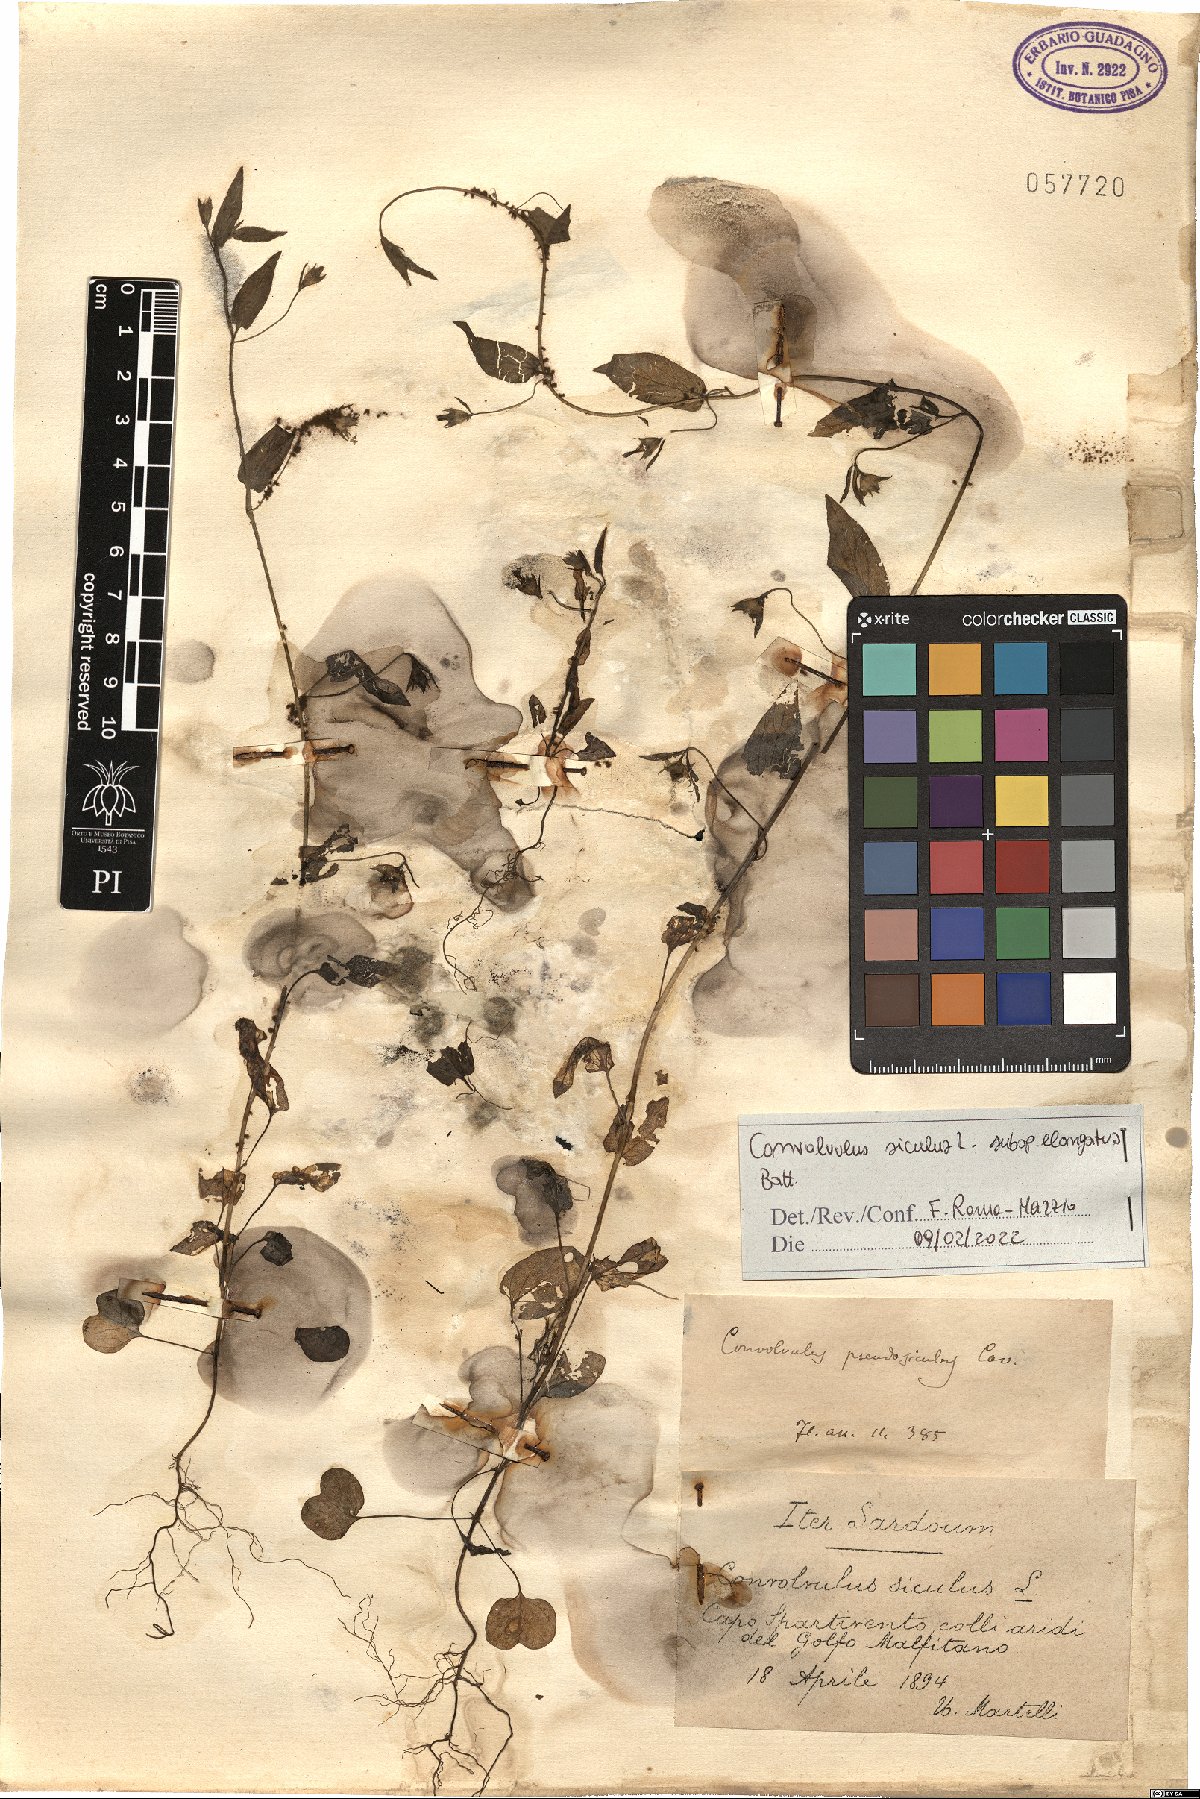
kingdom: Plantae
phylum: Tracheophyta
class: Magnoliopsida
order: Solanales
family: Convolvulaceae
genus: Convolvulus
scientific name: Convolvulus siculus
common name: Small blue-convolvulus
